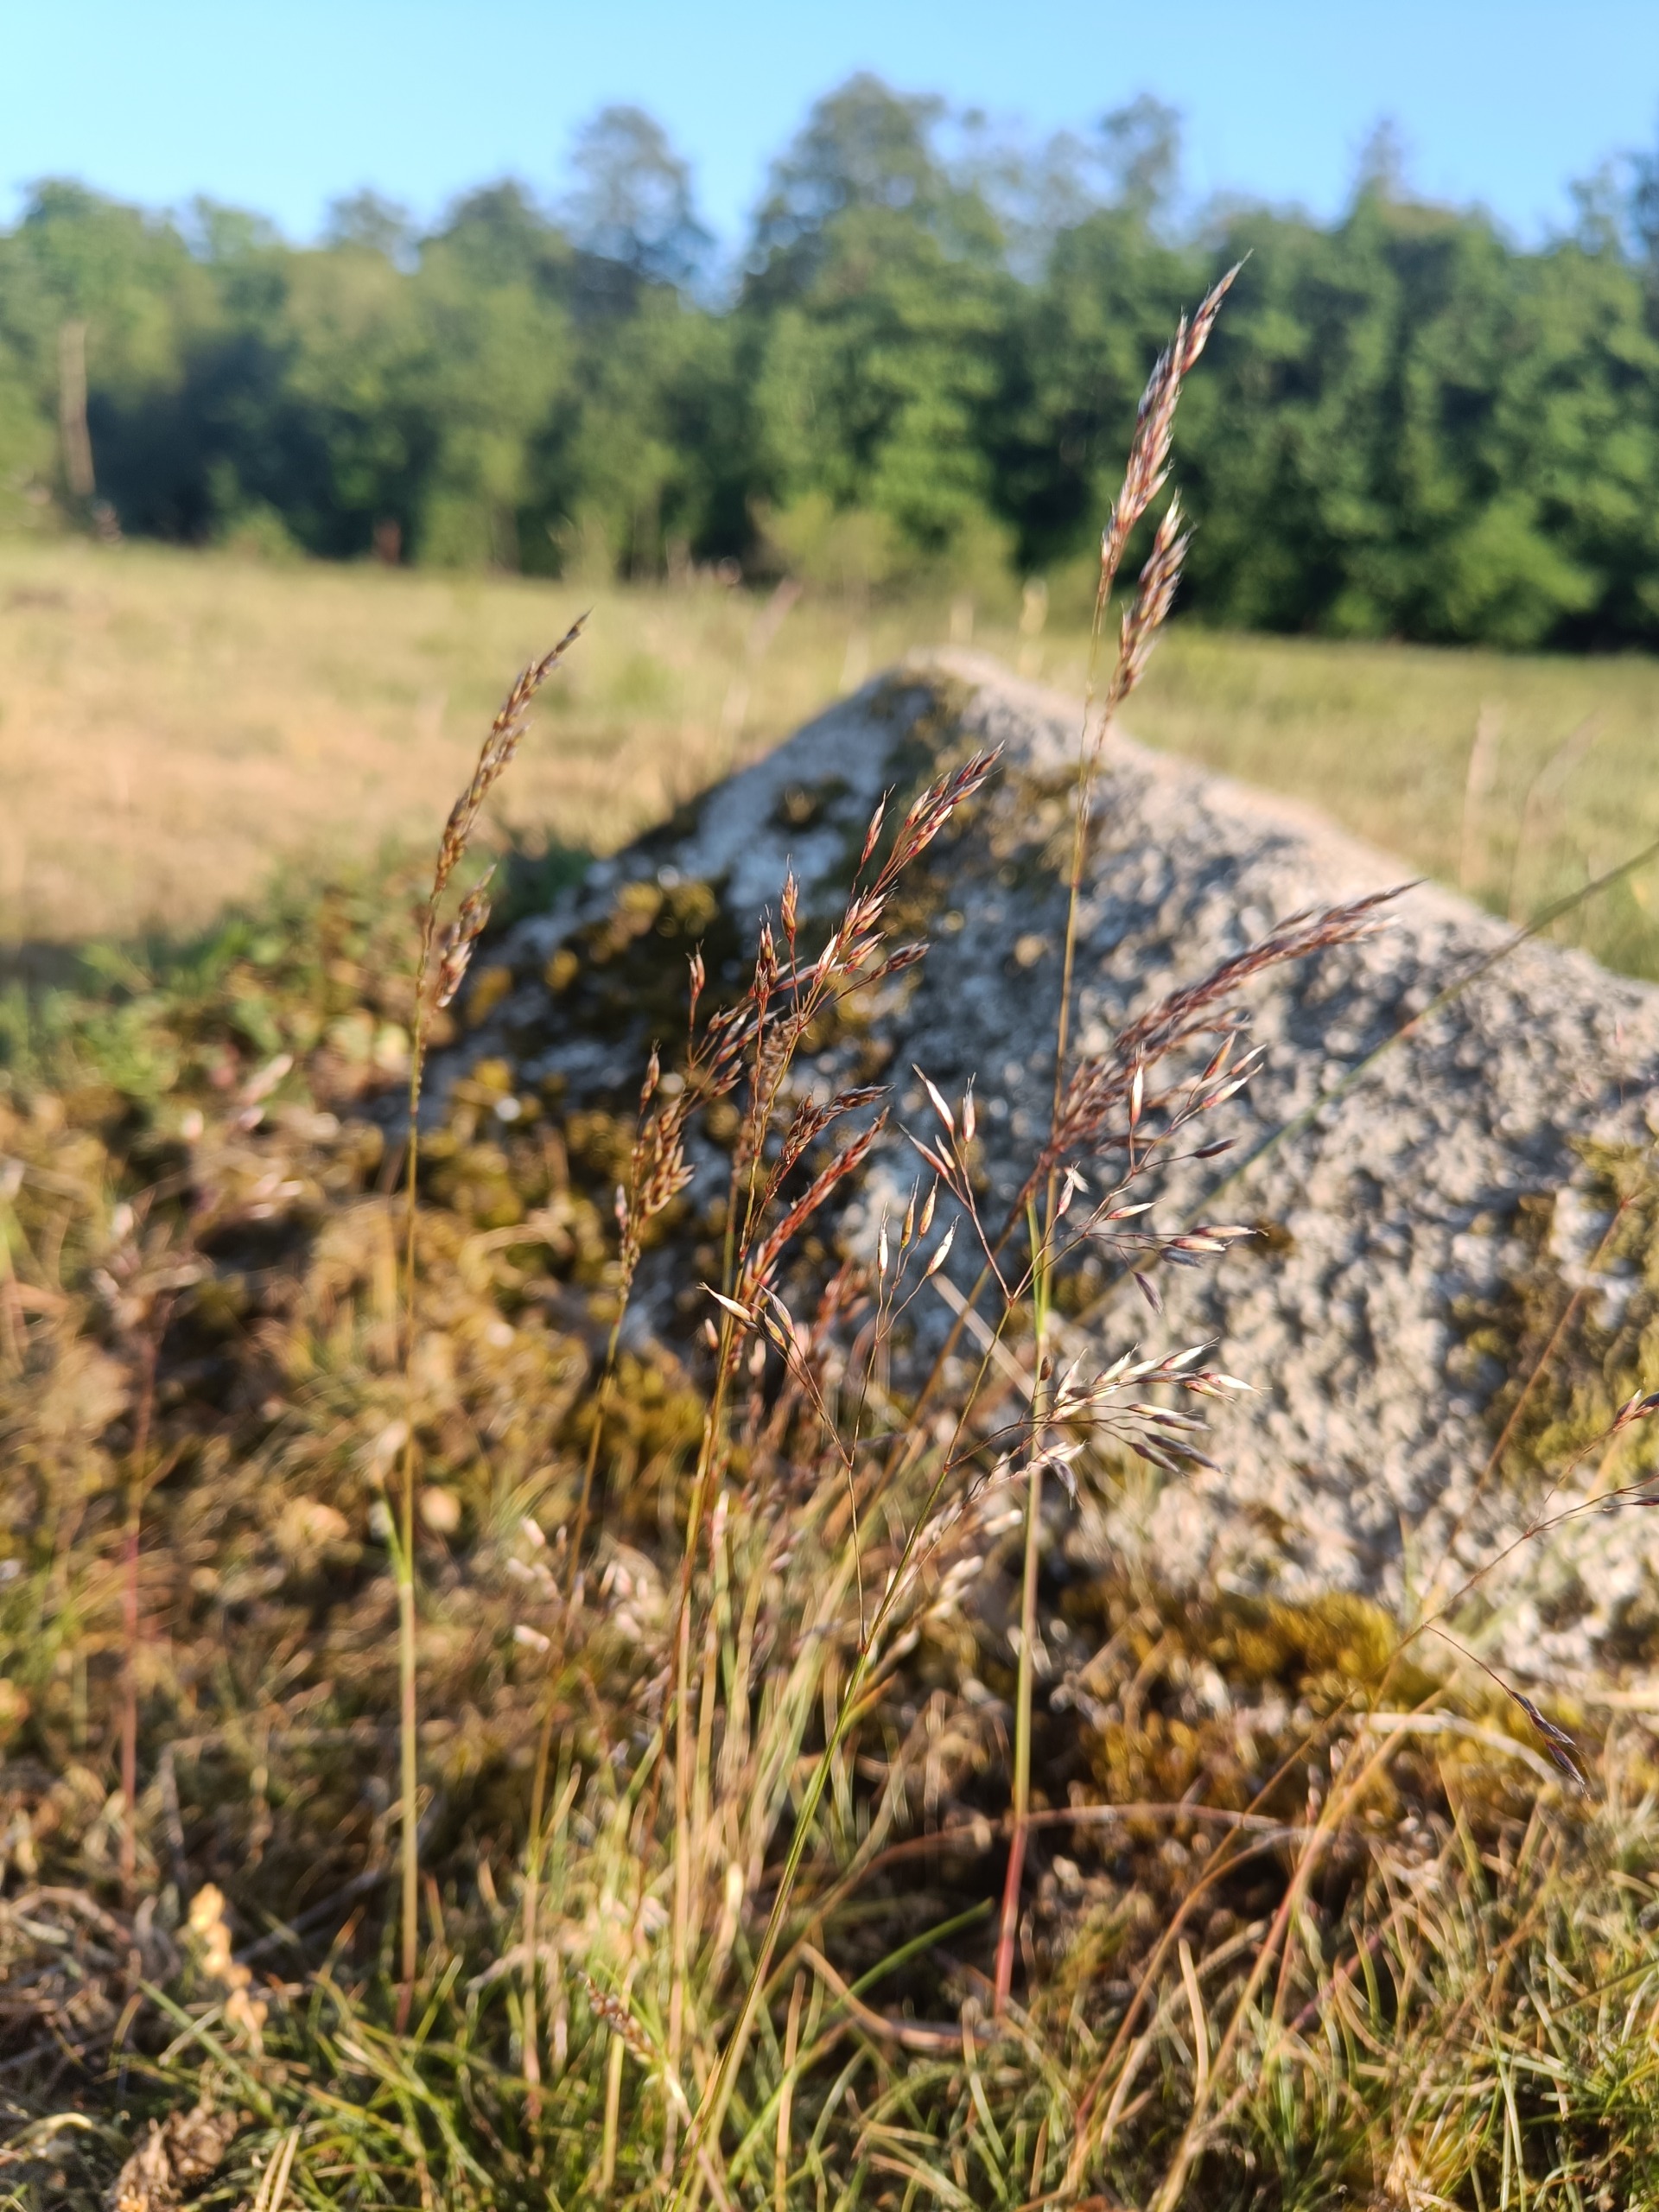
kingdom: Plantae
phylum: Tracheophyta
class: Liliopsida
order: Poales
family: Poaceae
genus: Avenella
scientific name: Avenella flexuosa
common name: Bølget bunke
